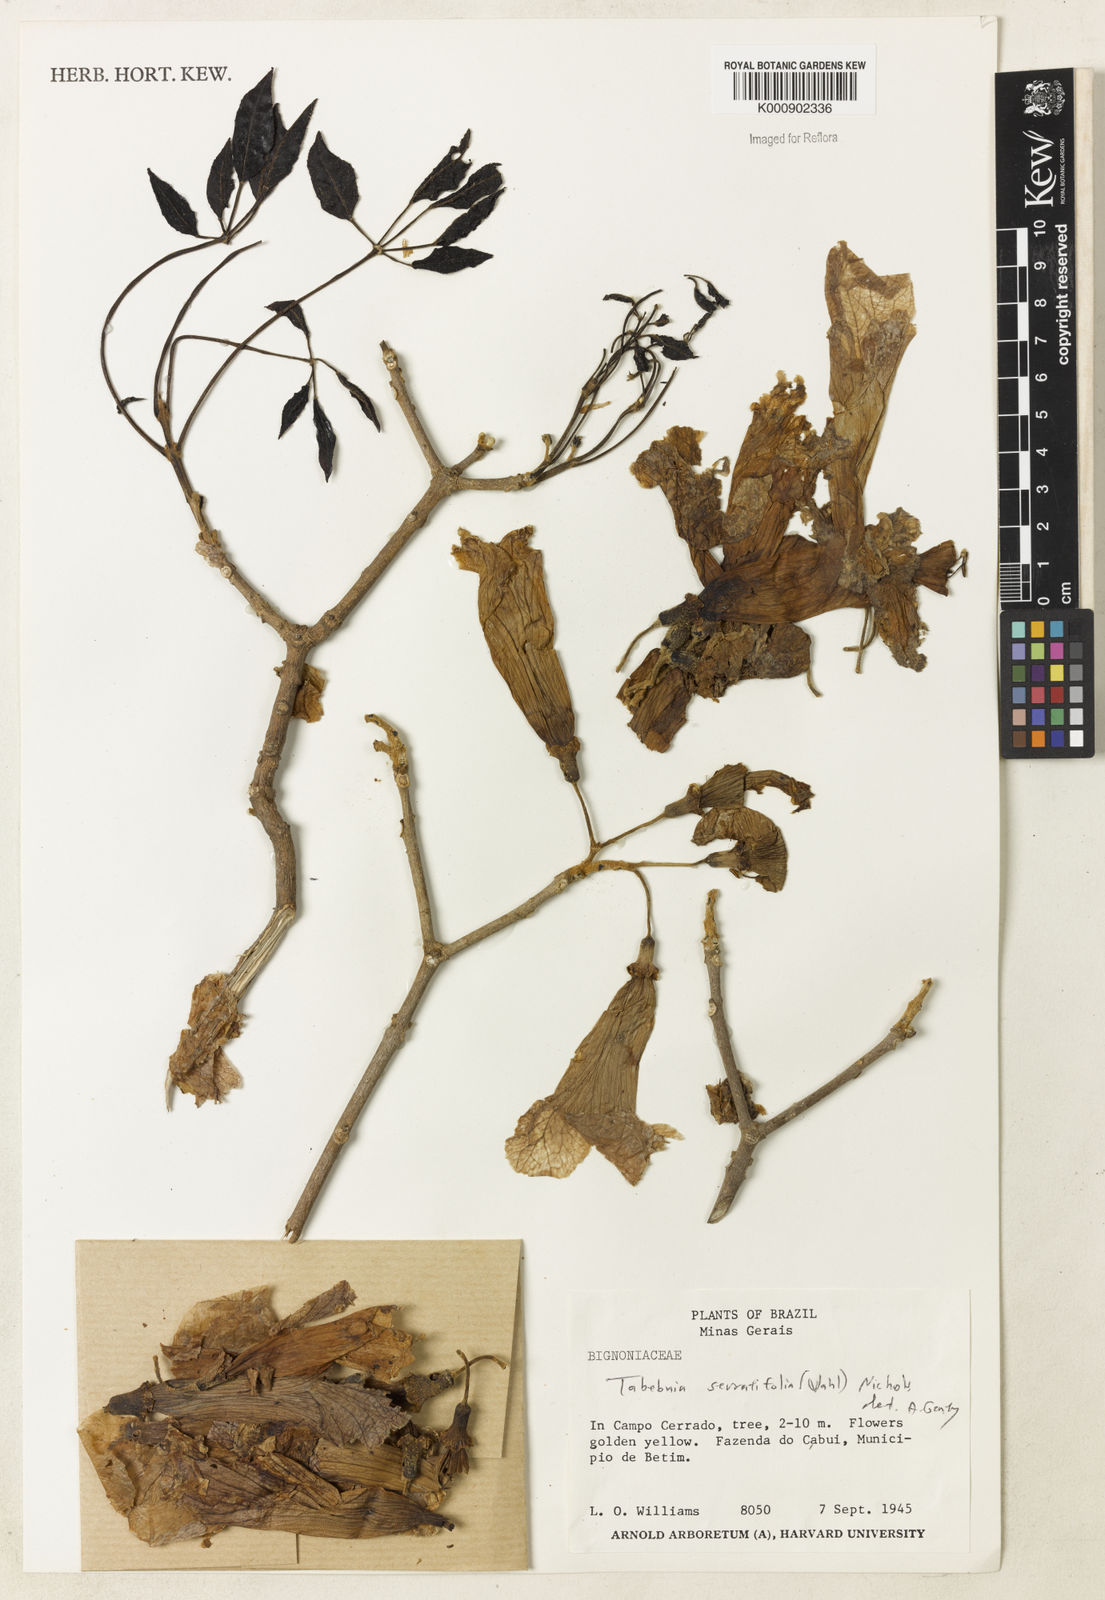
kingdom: Plantae
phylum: Tracheophyta
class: Magnoliopsida
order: Lamiales
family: Bignoniaceae
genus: Handroanthus
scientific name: Handroanthus serratifolius
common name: Yellow ipe
